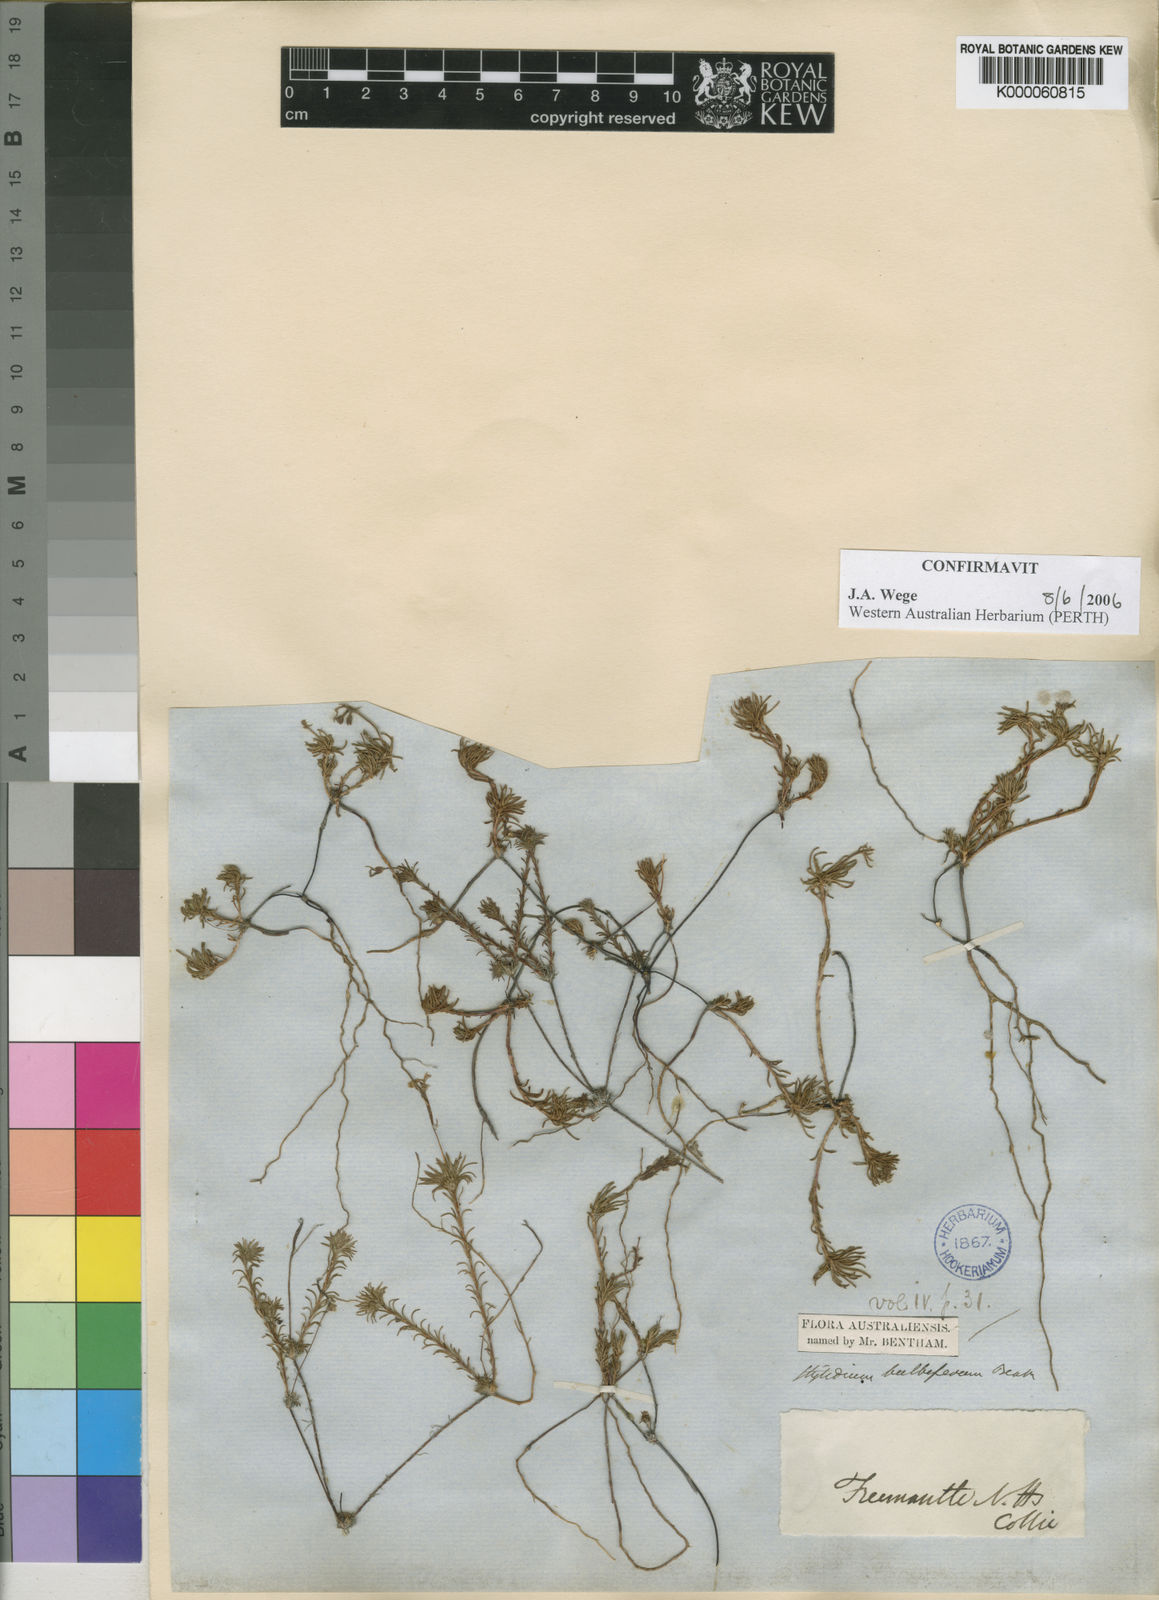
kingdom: Plantae
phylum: Tracheophyta
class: Magnoliopsida
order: Asterales
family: Stylidiaceae
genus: Stylidium
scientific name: Stylidium bulbiferum
